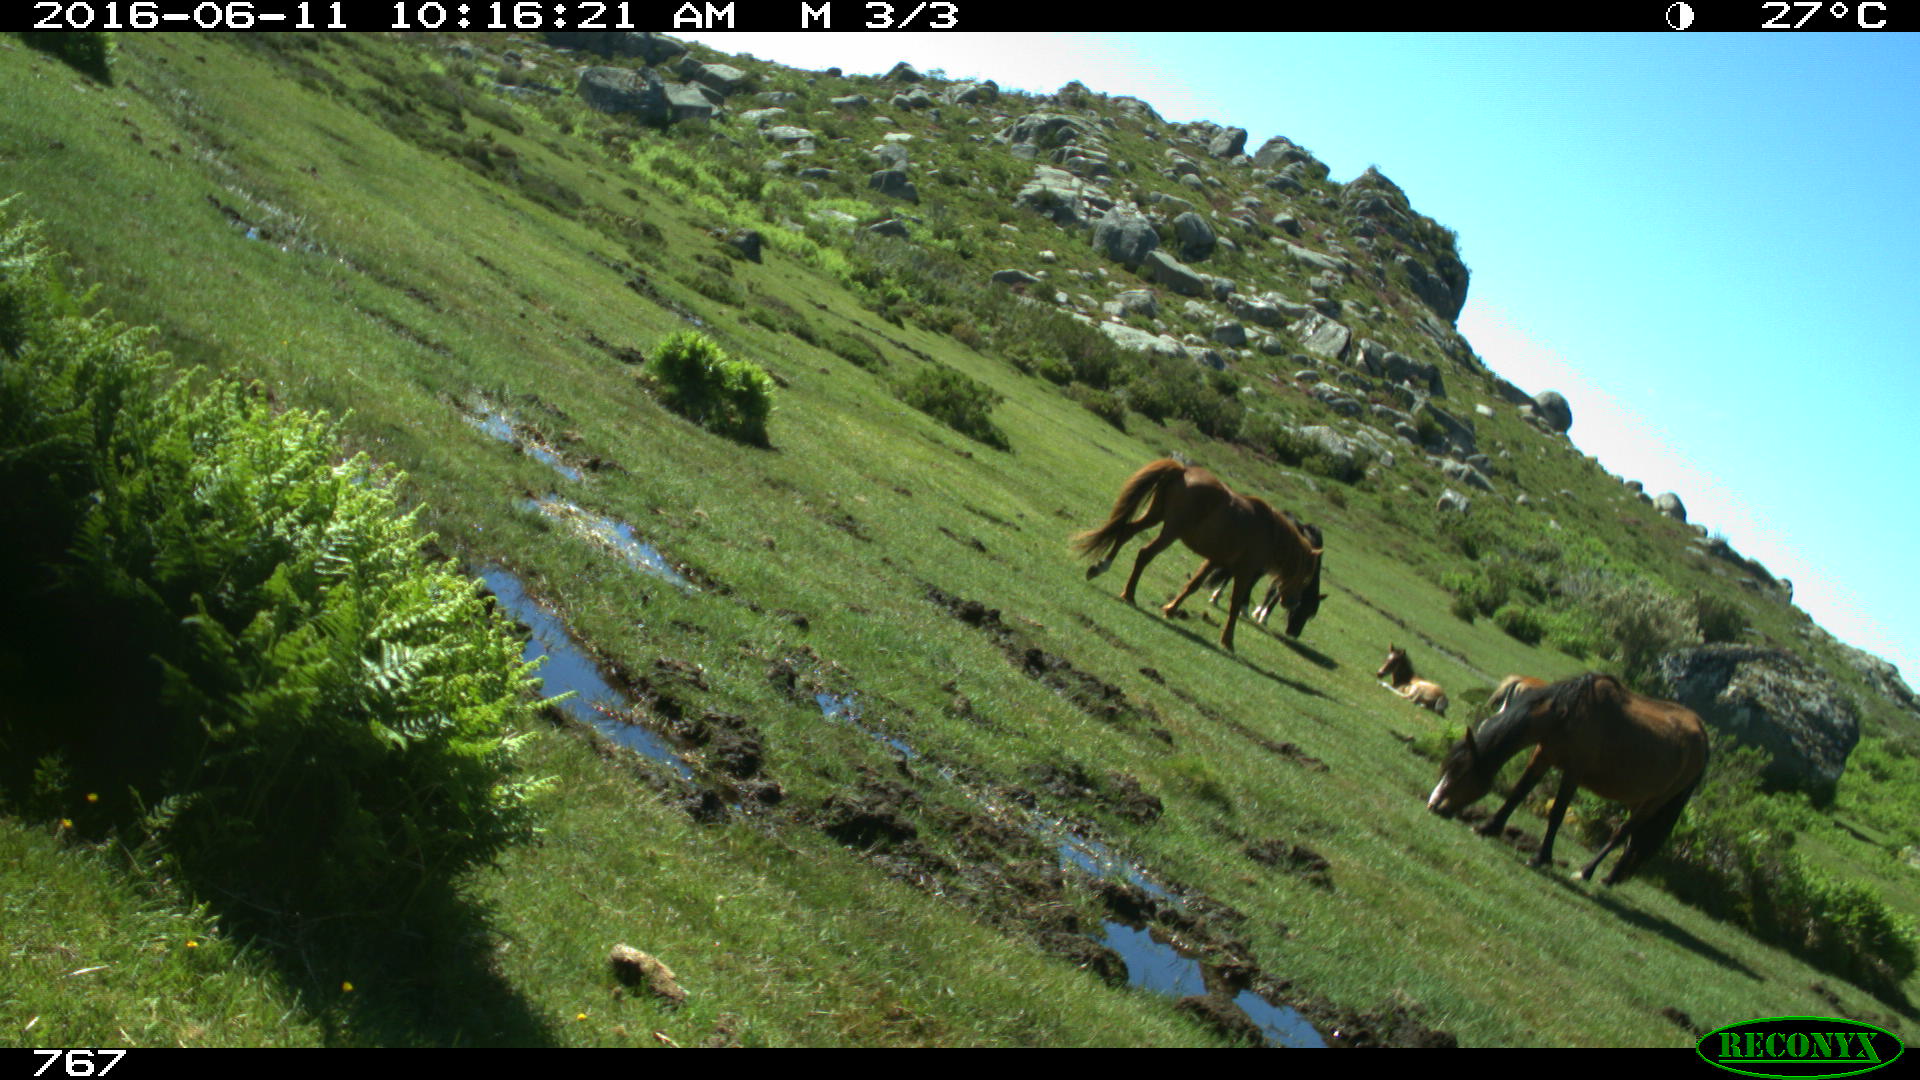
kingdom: Animalia
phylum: Chordata
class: Mammalia
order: Perissodactyla
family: Equidae
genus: Equus
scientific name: Equus caballus
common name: Horse
